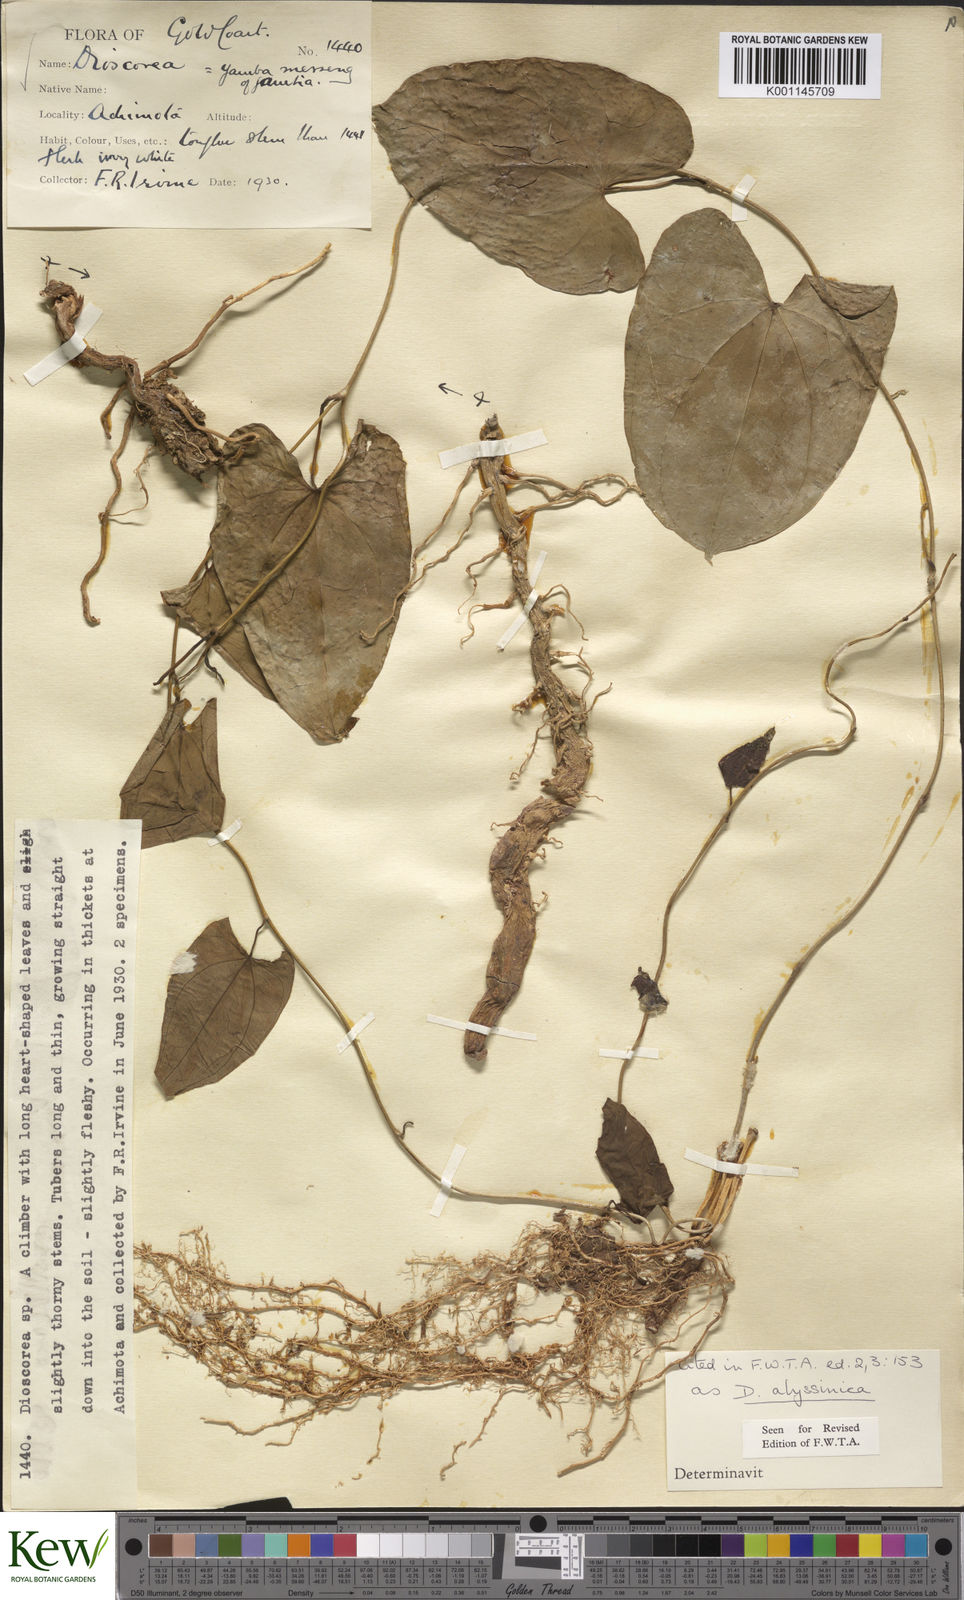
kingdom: Plantae
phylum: Tracheophyta
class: Liliopsida
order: Dioscoreales
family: Dioscoreaceae
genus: Dioscorea
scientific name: Dioscorea abyssinica
